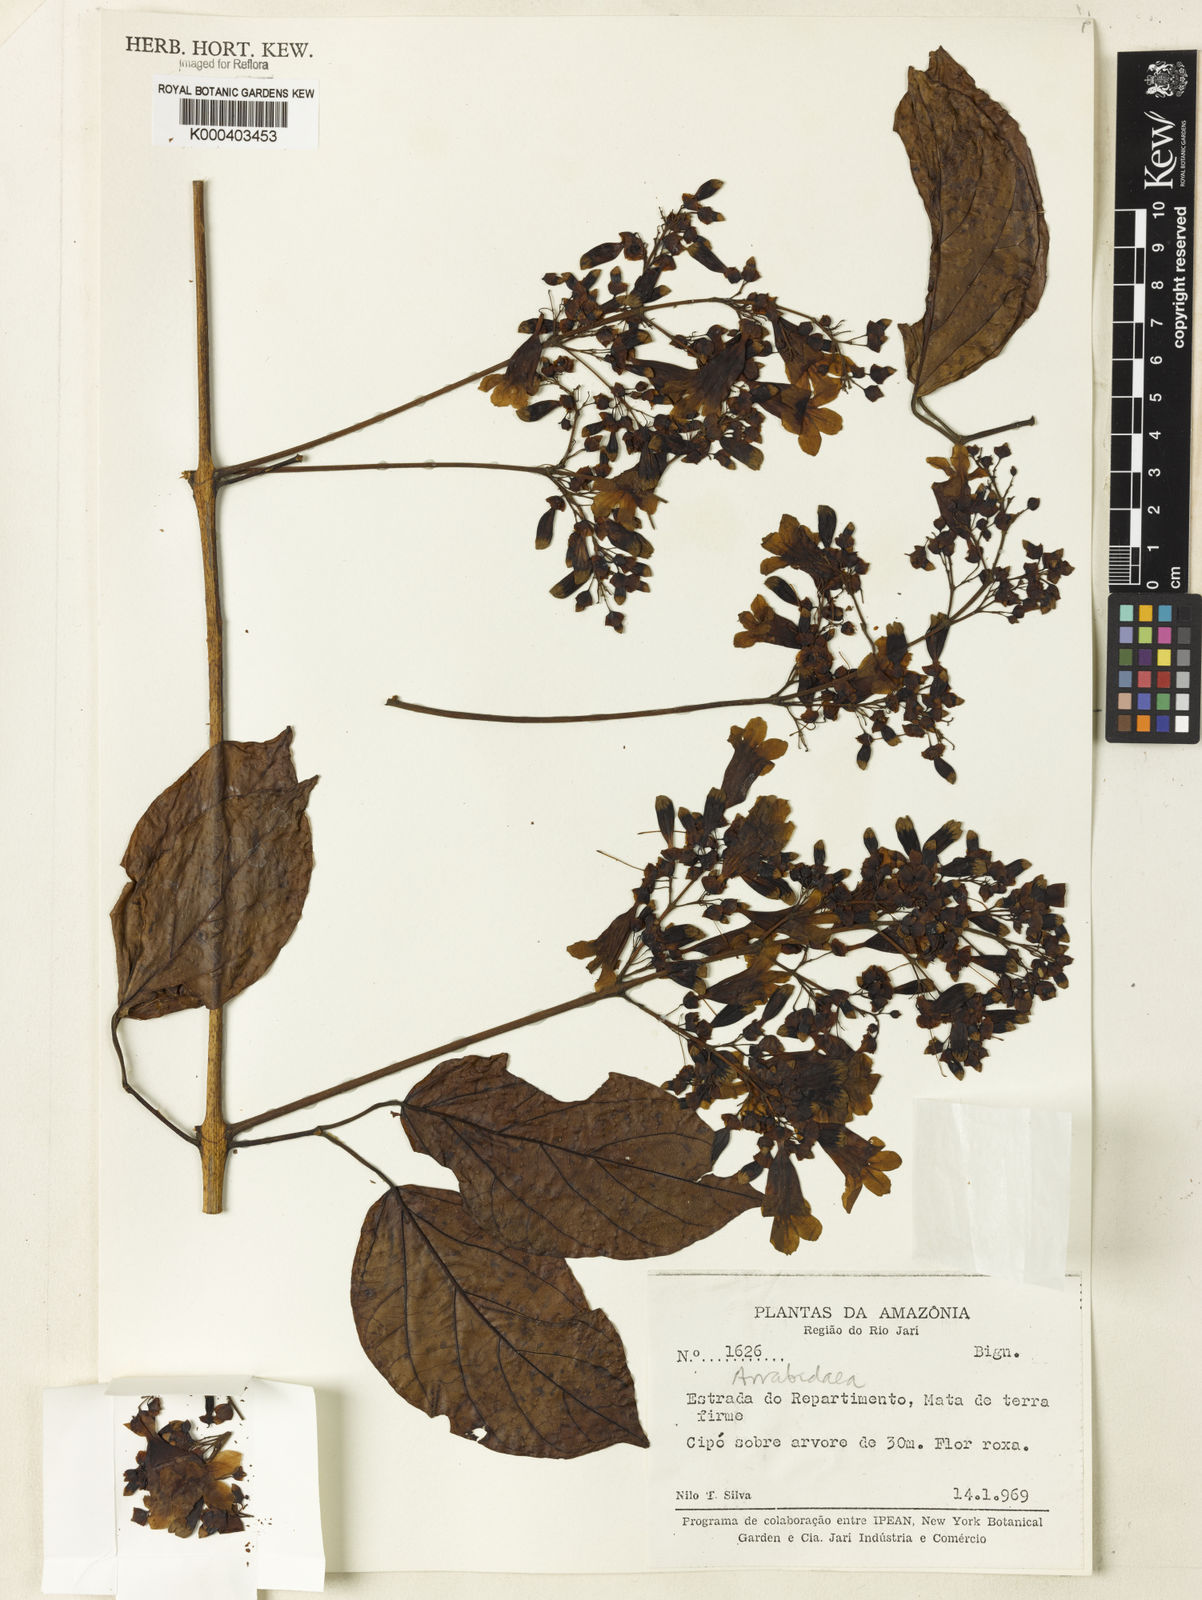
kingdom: Plantae
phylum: Tracheophyta
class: Magnoliopsida
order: Rosales
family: Rhamnaceae
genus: Arrabidaea
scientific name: Arrabidaea
